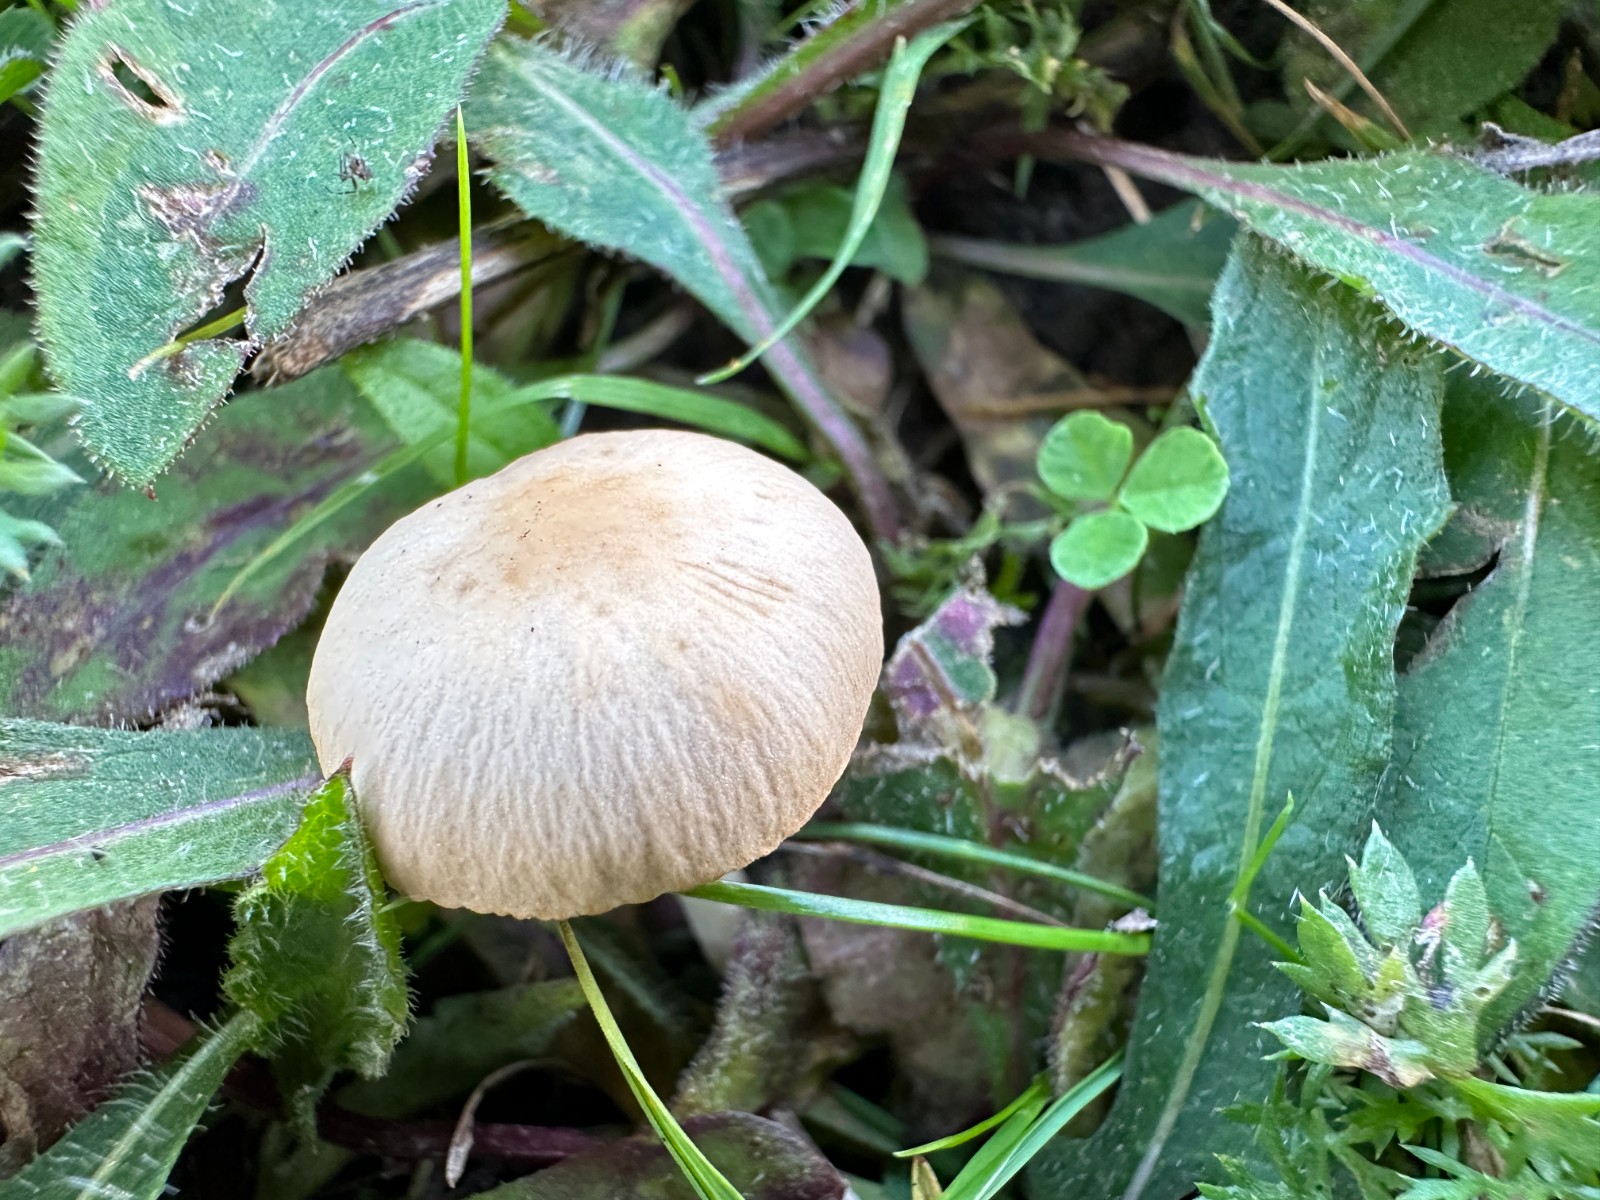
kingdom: Fungi
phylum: Basidiomycota
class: Agaricomycetes
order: Agaricales
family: Psathyrellaceae
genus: Psathyrella
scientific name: Psathyrella
